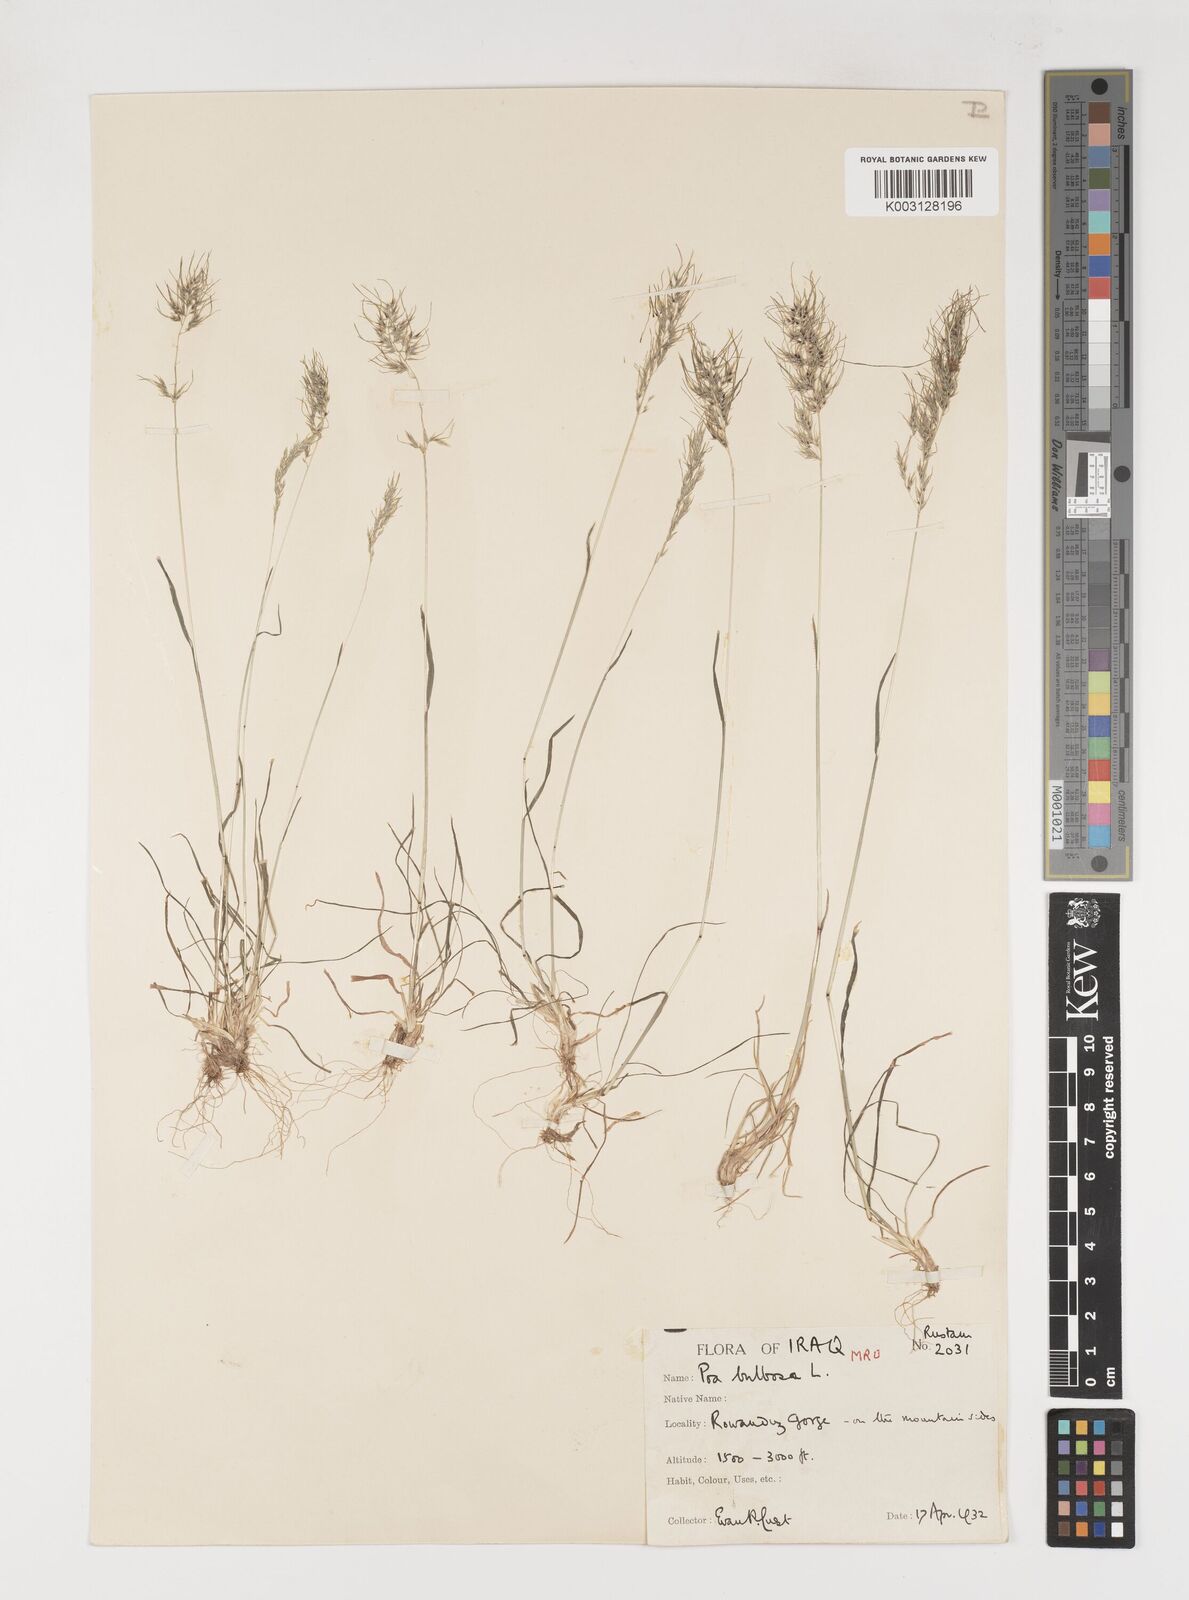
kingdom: Plantae
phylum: Tracheophyta
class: Liliopsida
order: Poales
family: Poaceae
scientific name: Poaceae
